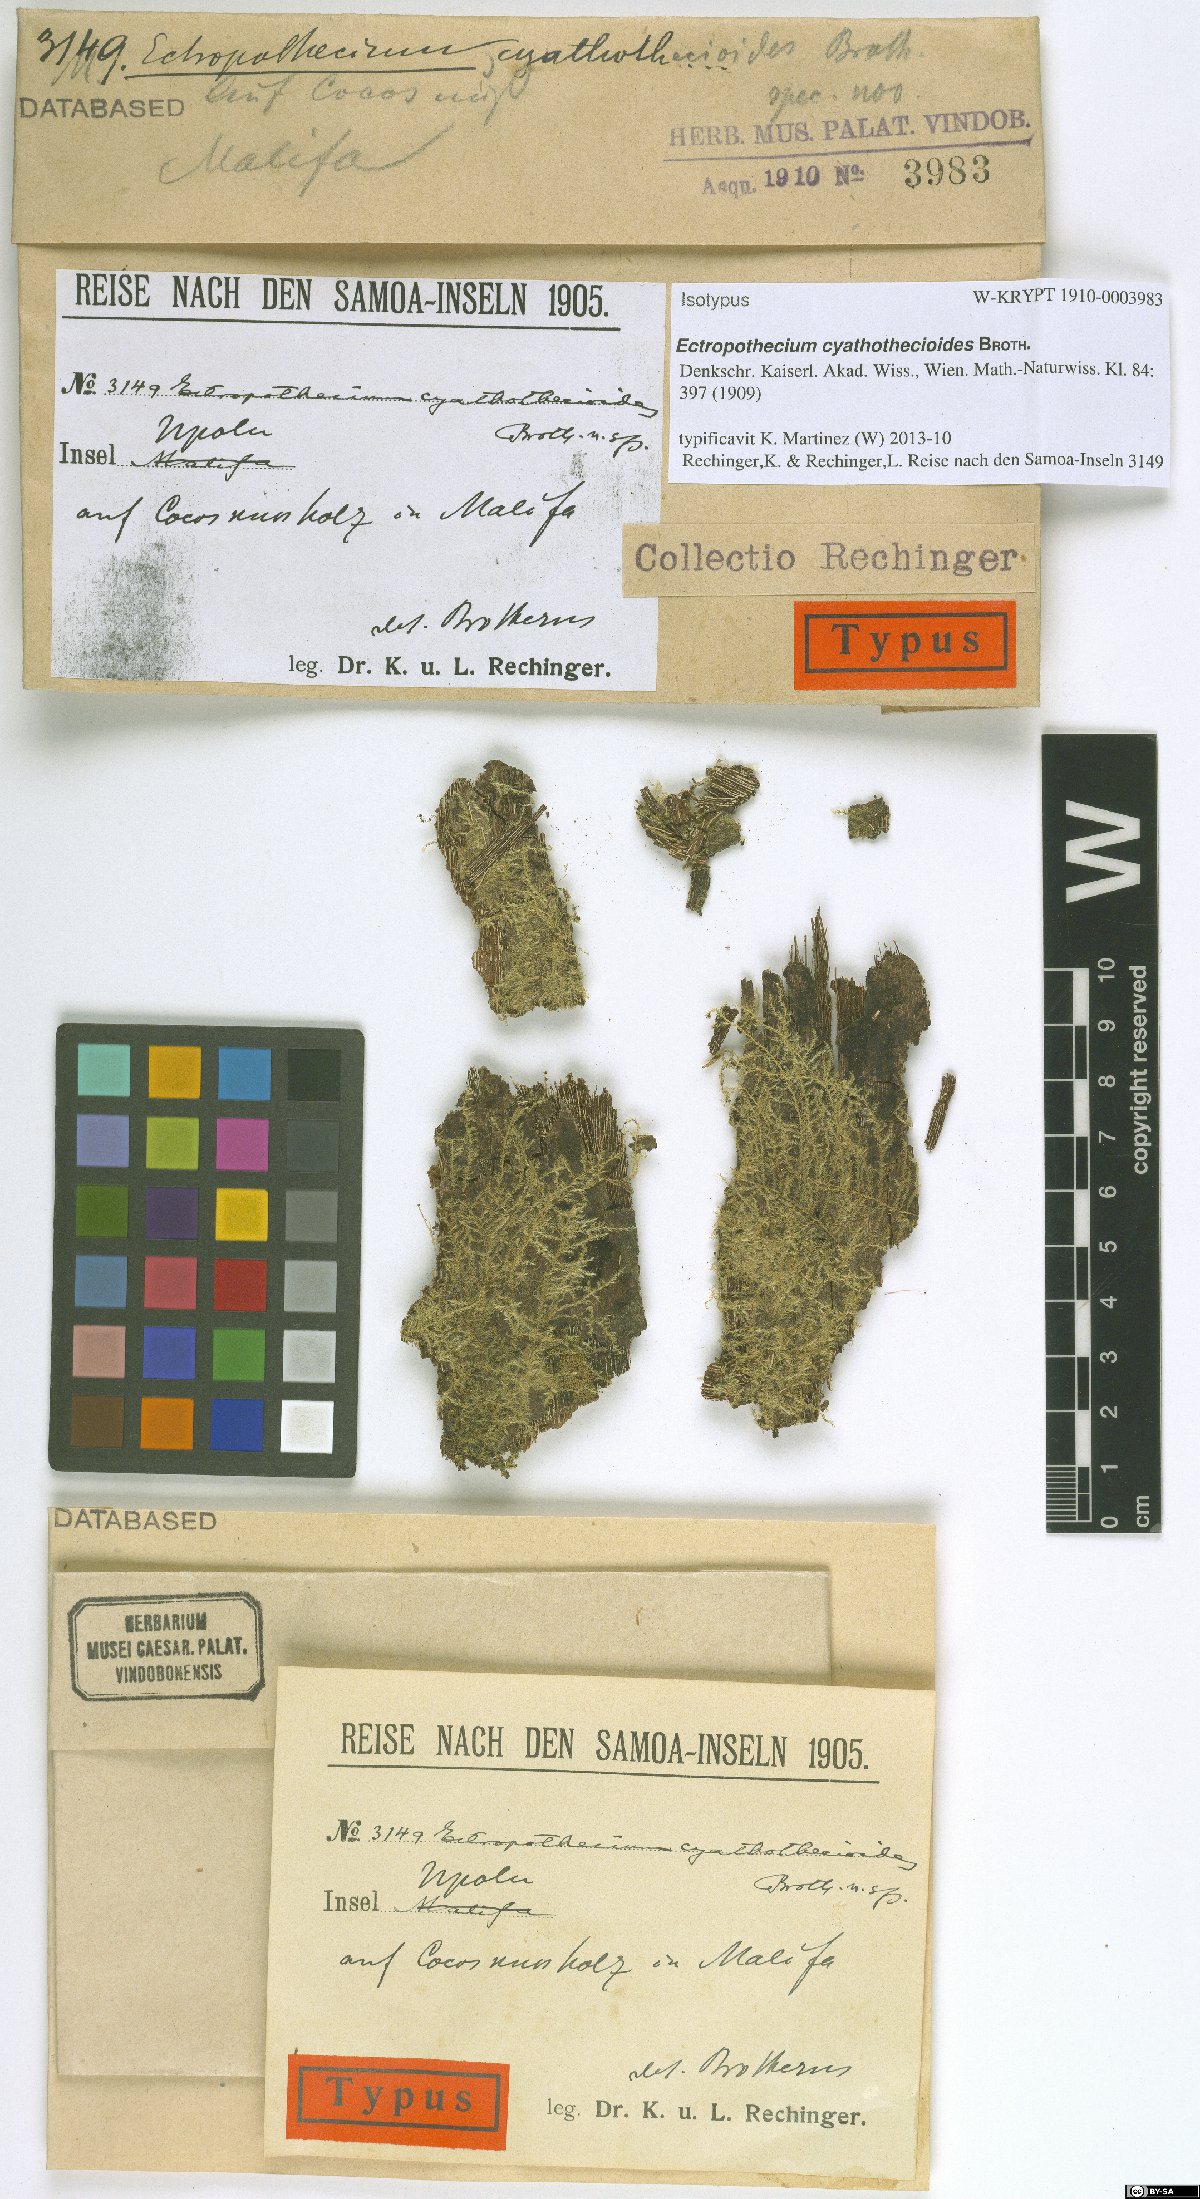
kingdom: Plantae
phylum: Bryophyta
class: Bryopsida
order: Hypnales
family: Hypnaceae
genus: Ectropothecium
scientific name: Ectropothecium cyathothecioides
